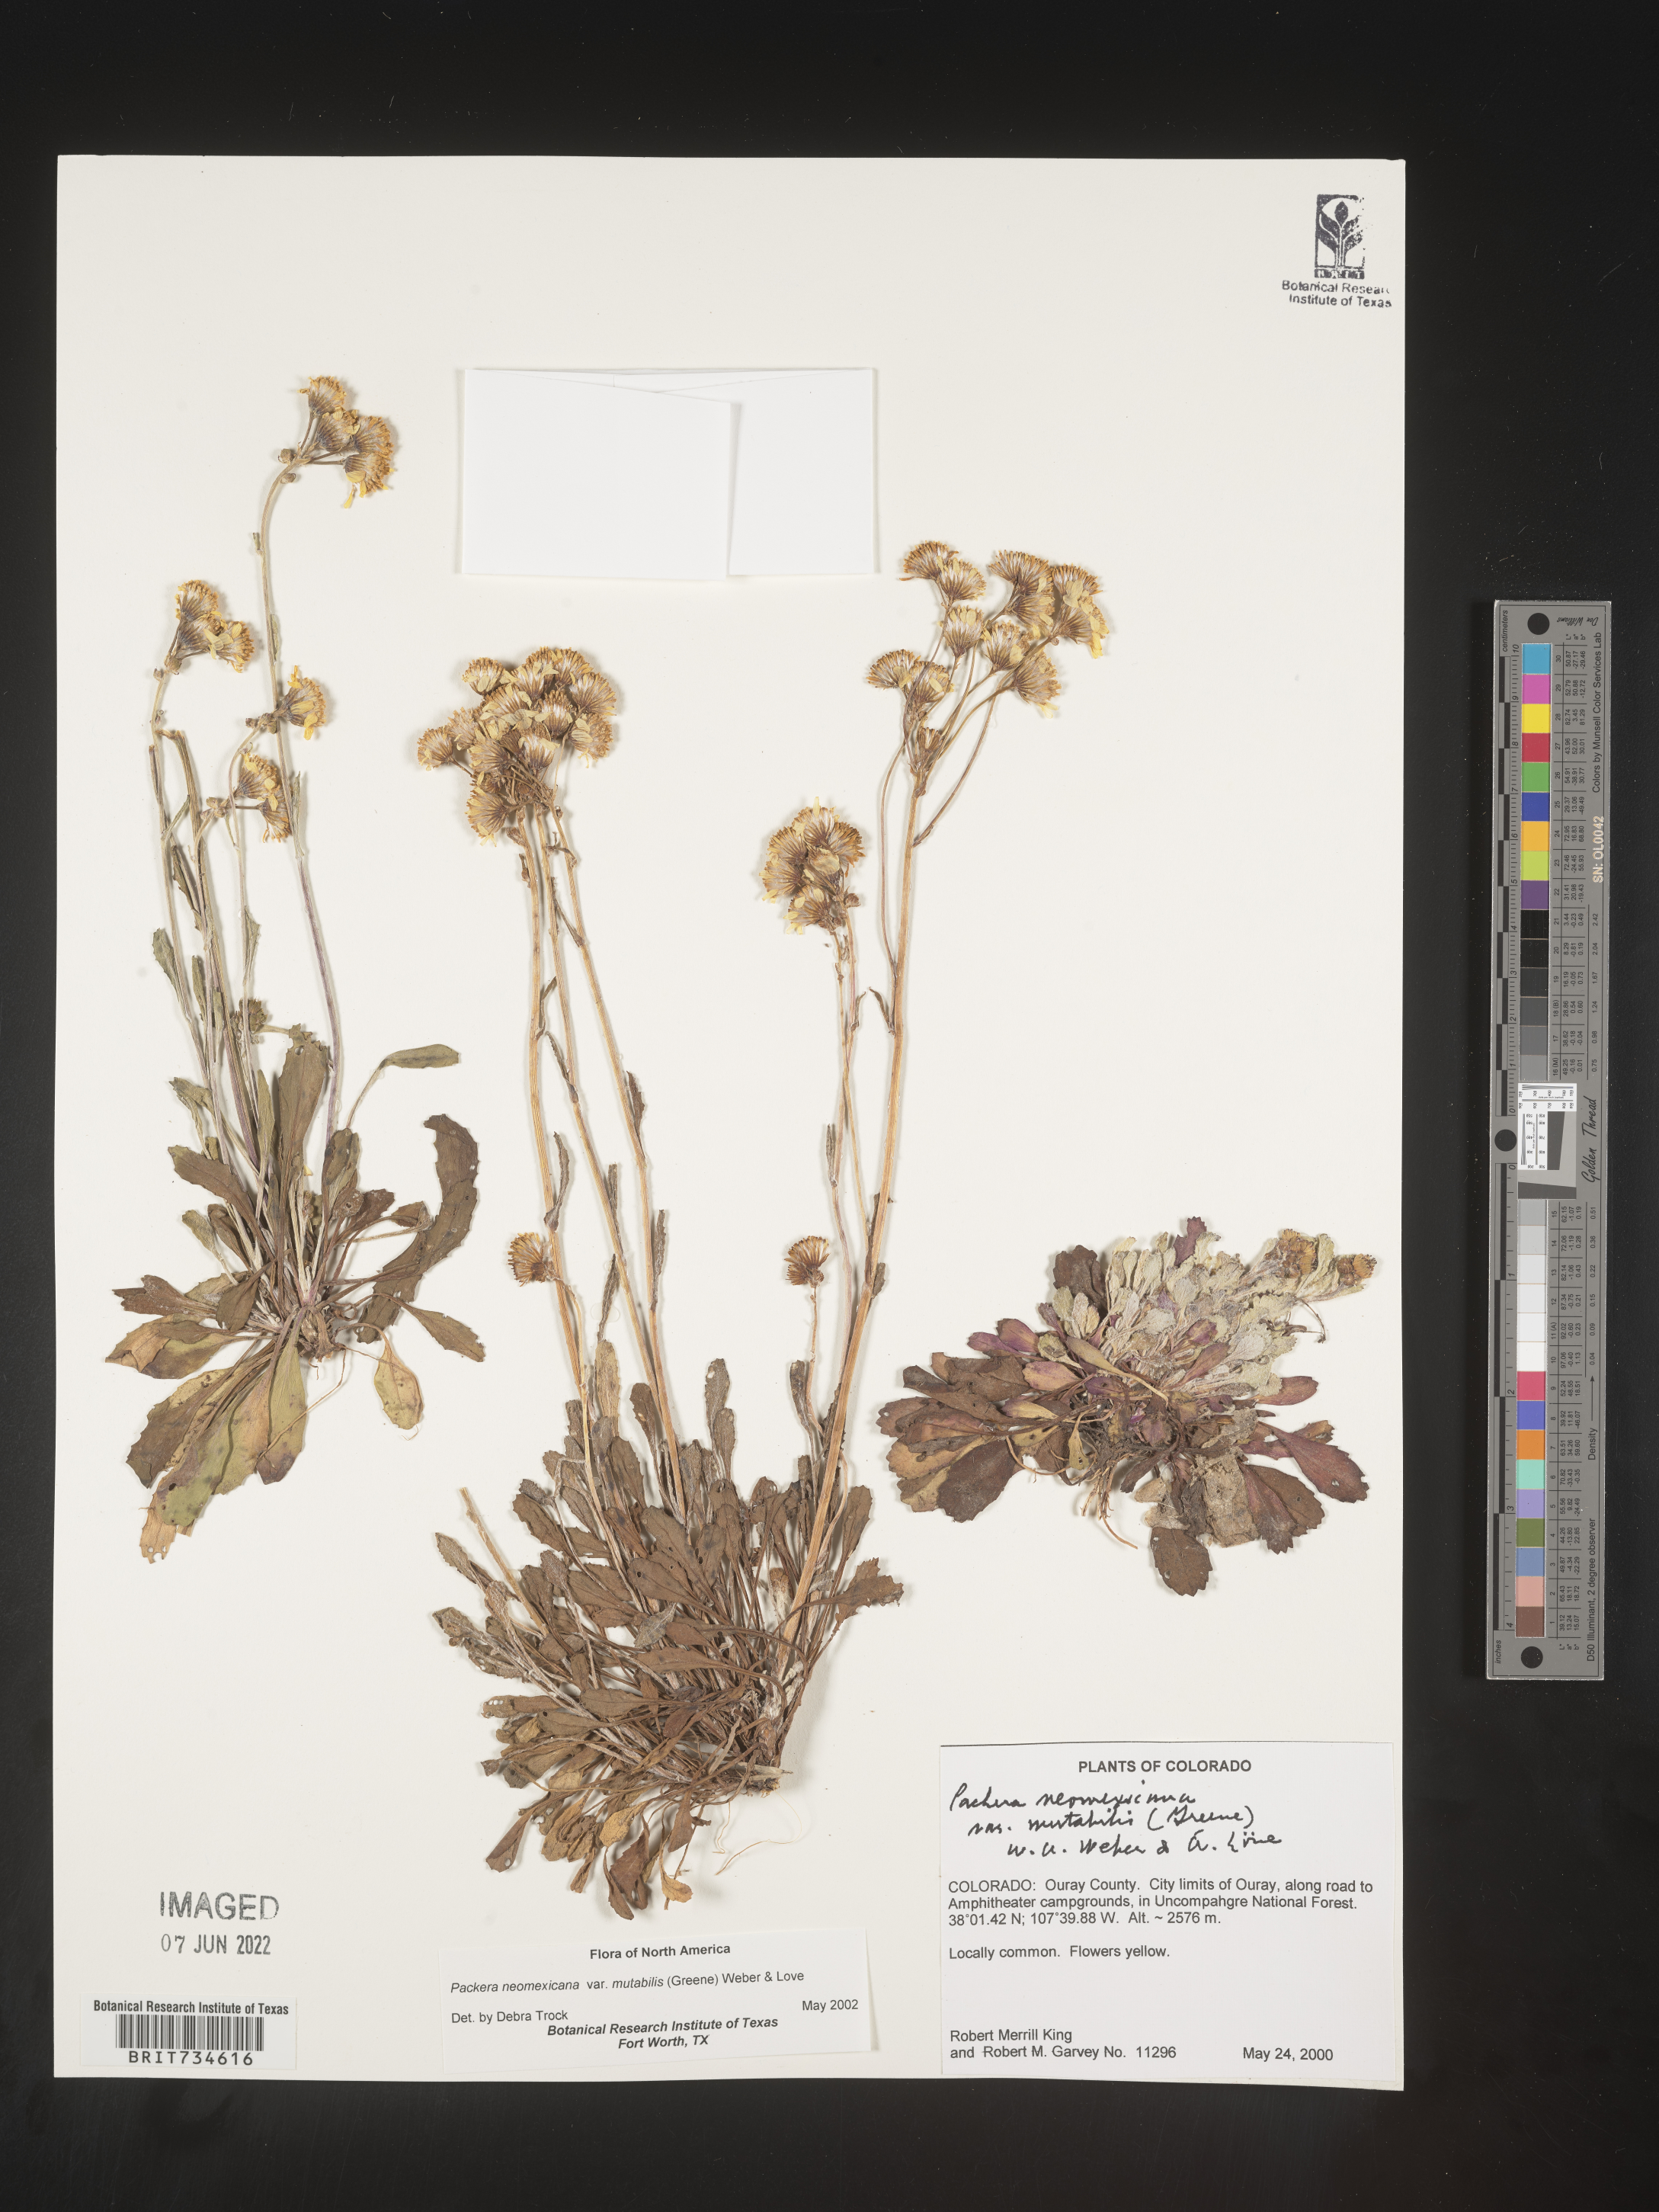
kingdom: Plantae
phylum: Tracheophyta
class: Magnoliopsida
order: Asterales
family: Asteraceae
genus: Packera
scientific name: Packera neomexicana
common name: New mexico butterweed
